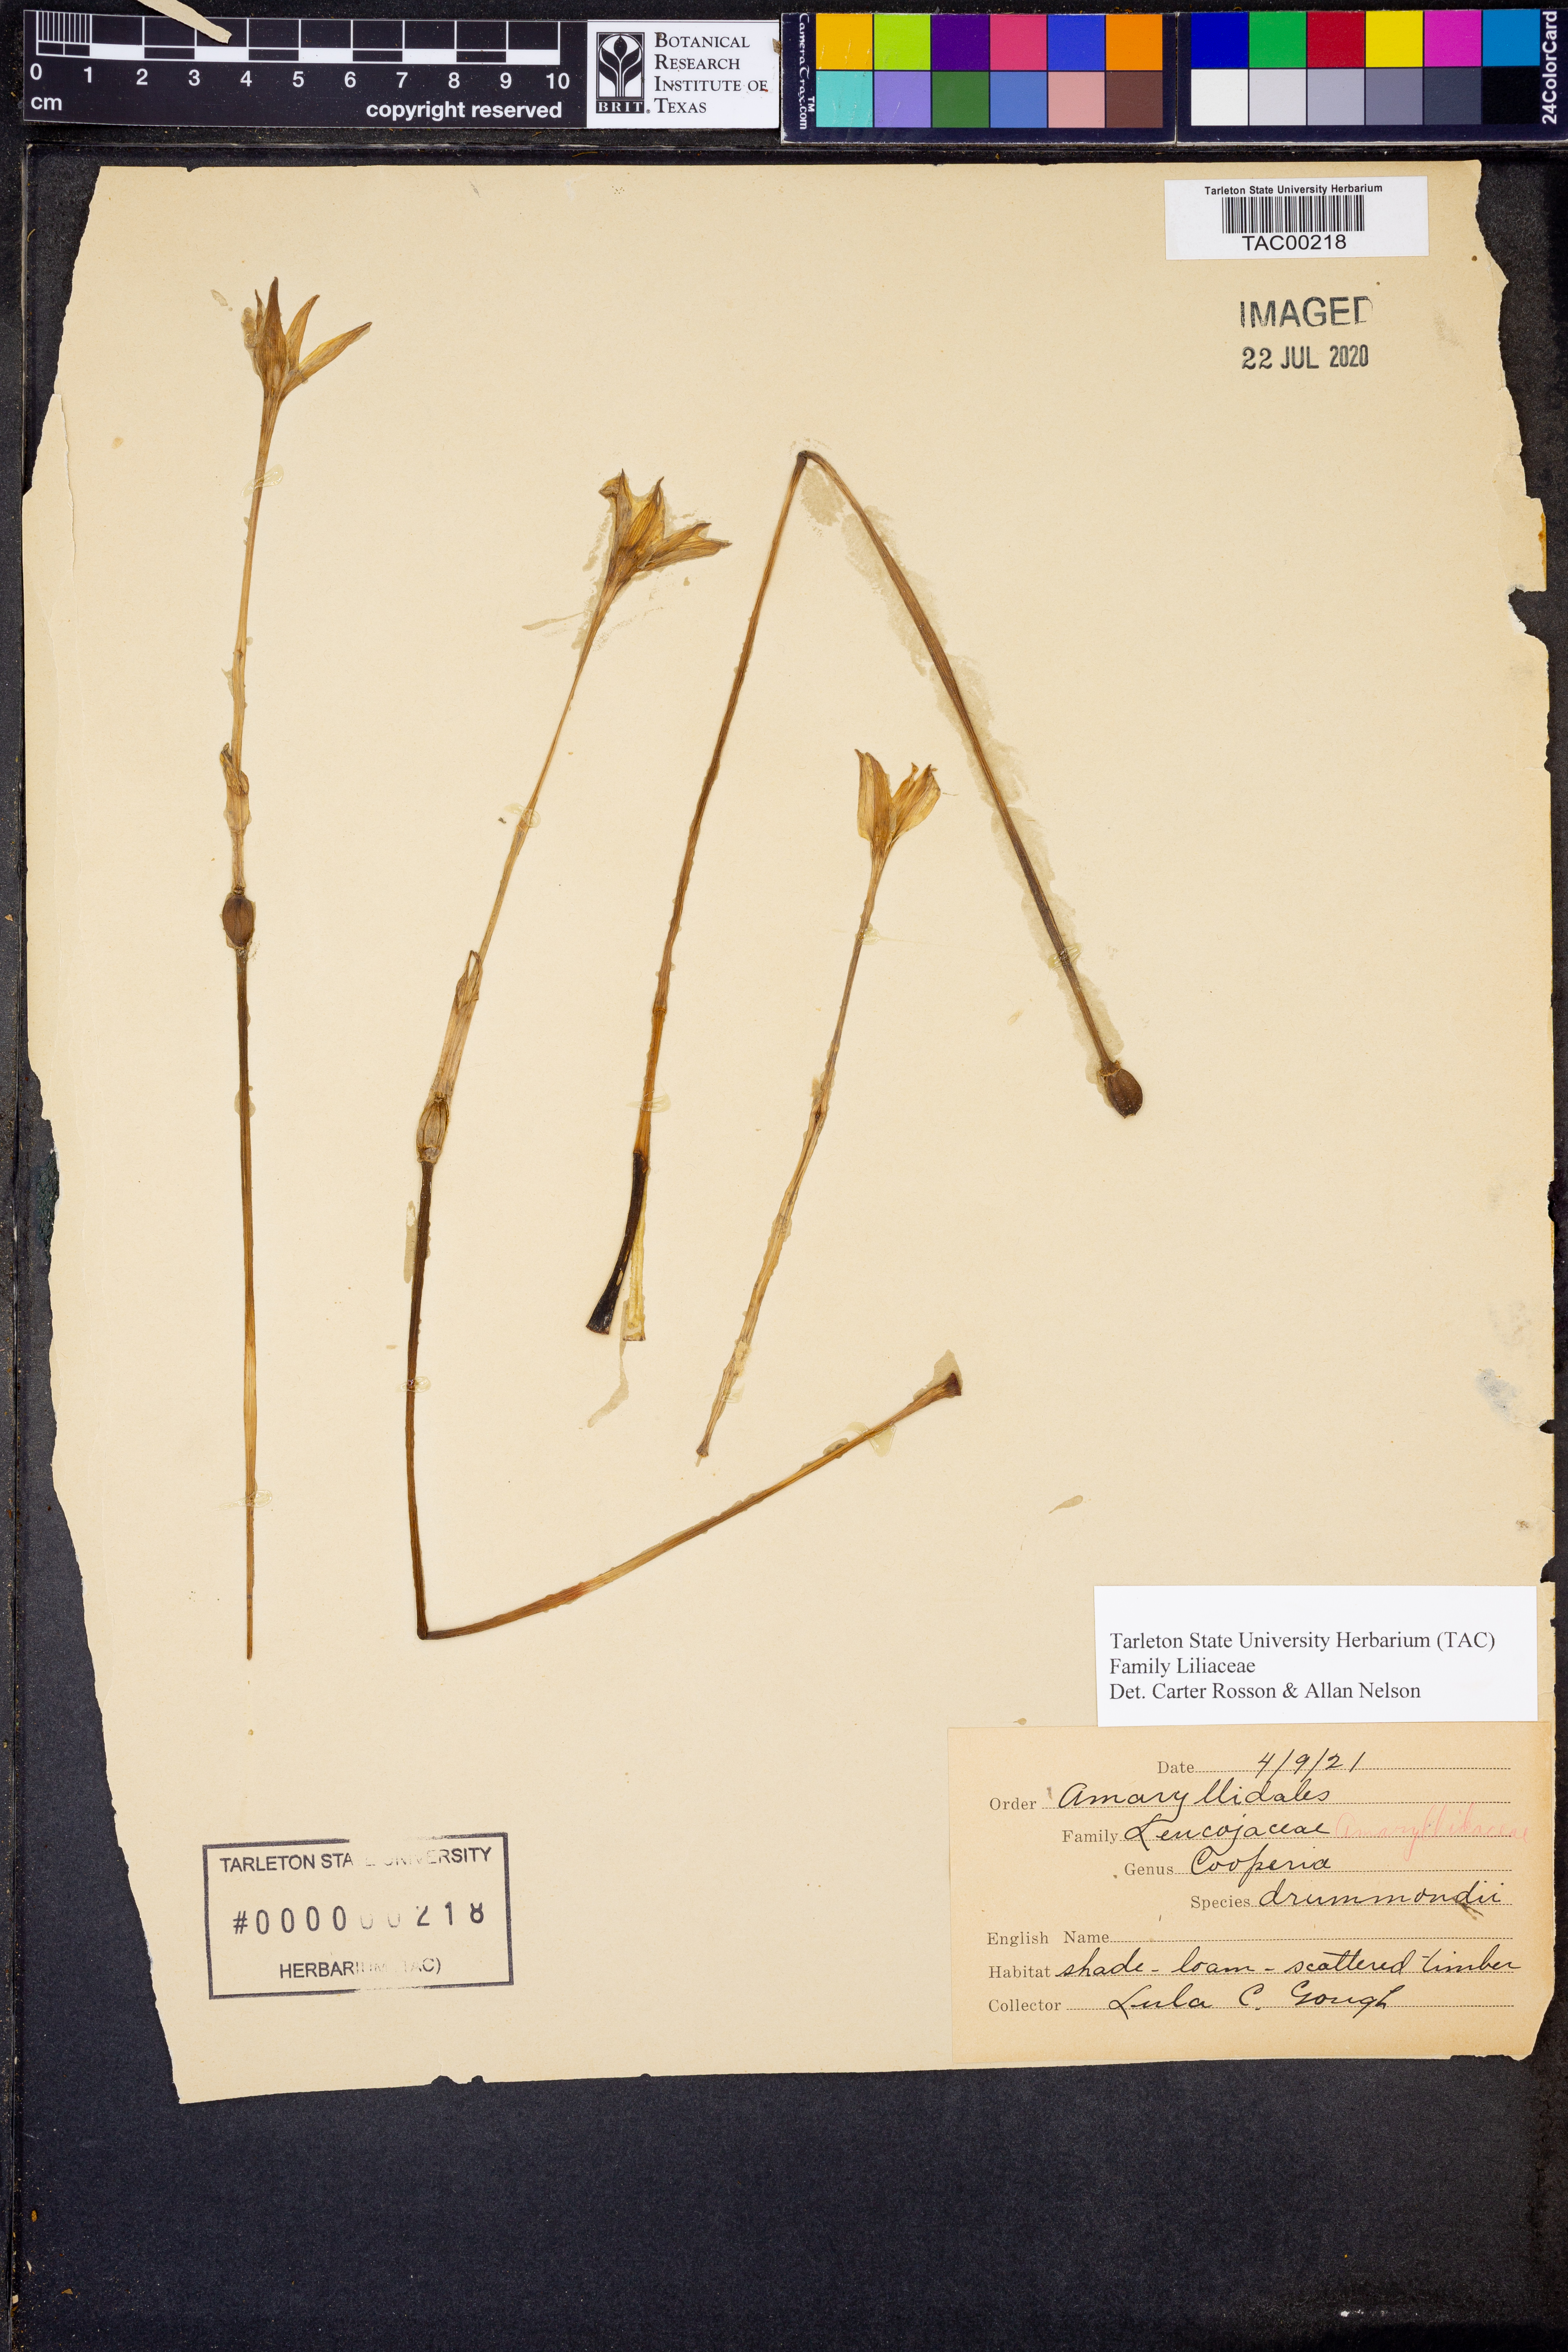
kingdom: Plantae
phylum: Tracheophyta
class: Liliopsida
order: Asparagales
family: Amaryllidaceae
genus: Zephyranthes
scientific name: Zephyranthes chlorosolen
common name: Evening rain-lily
